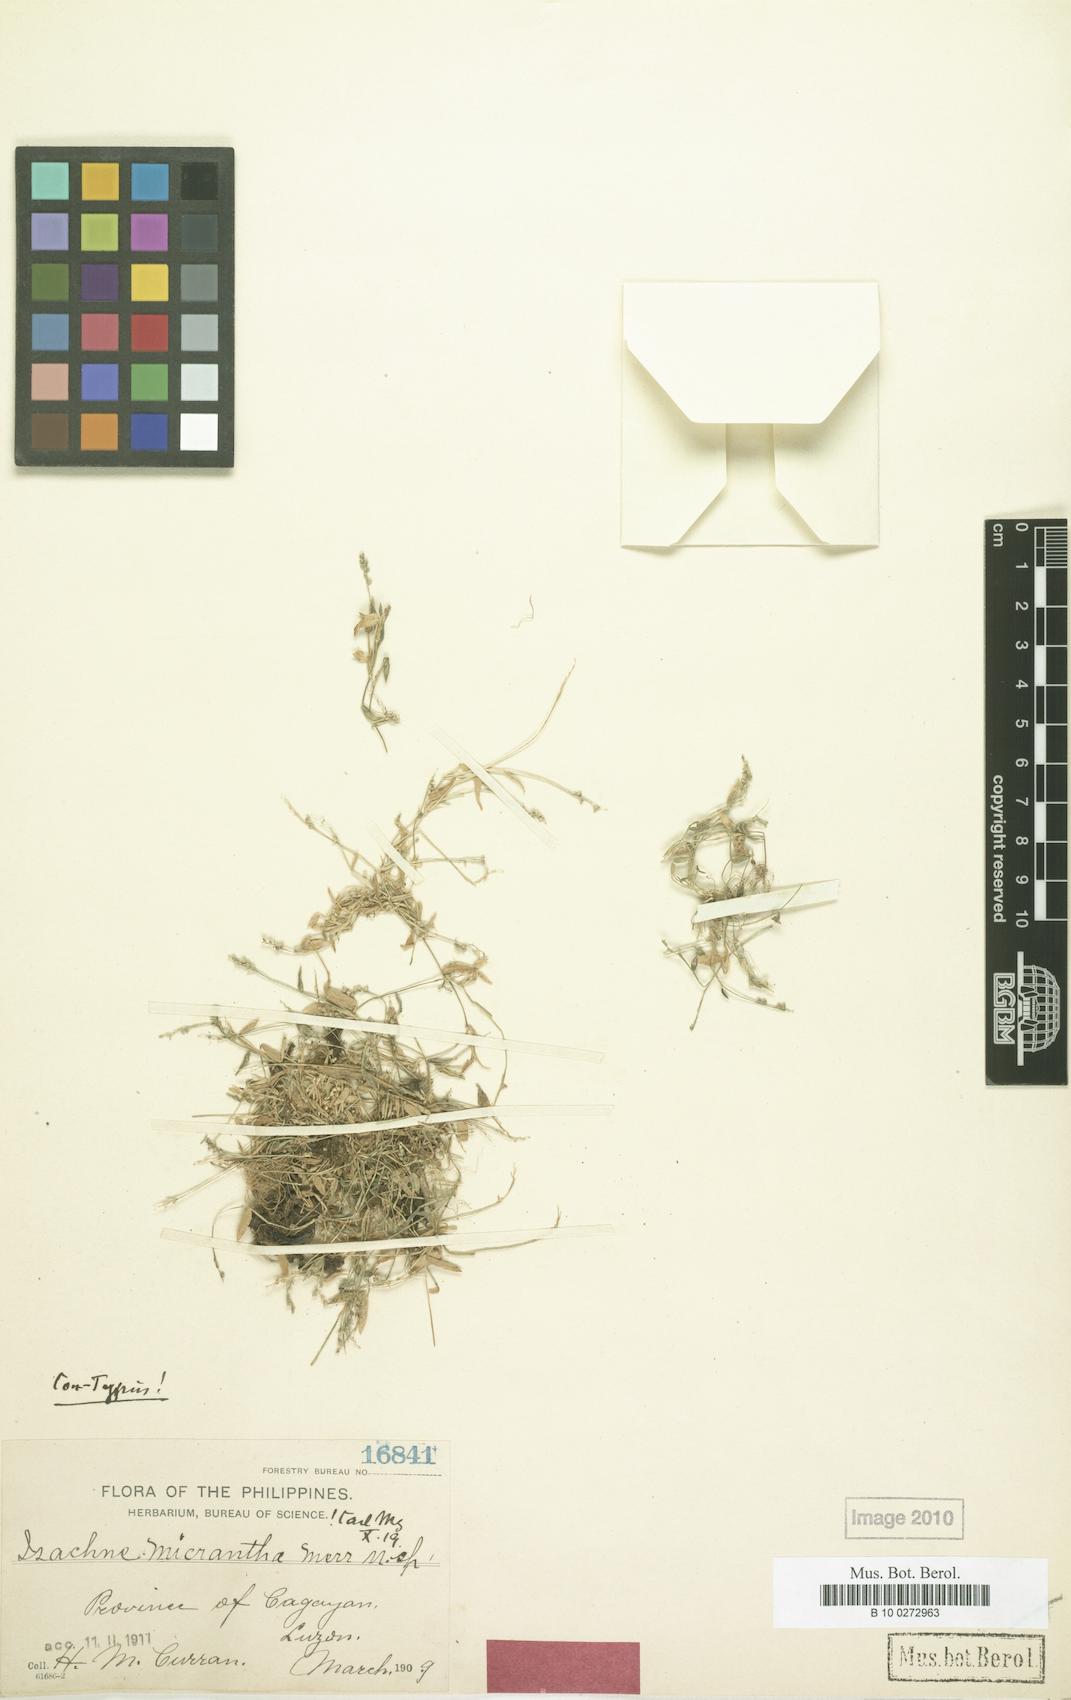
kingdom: Plantae
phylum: Tracheophyta
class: Liliopsida
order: Poales
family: Poaceae
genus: Isachne
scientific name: Isachne myosotis
